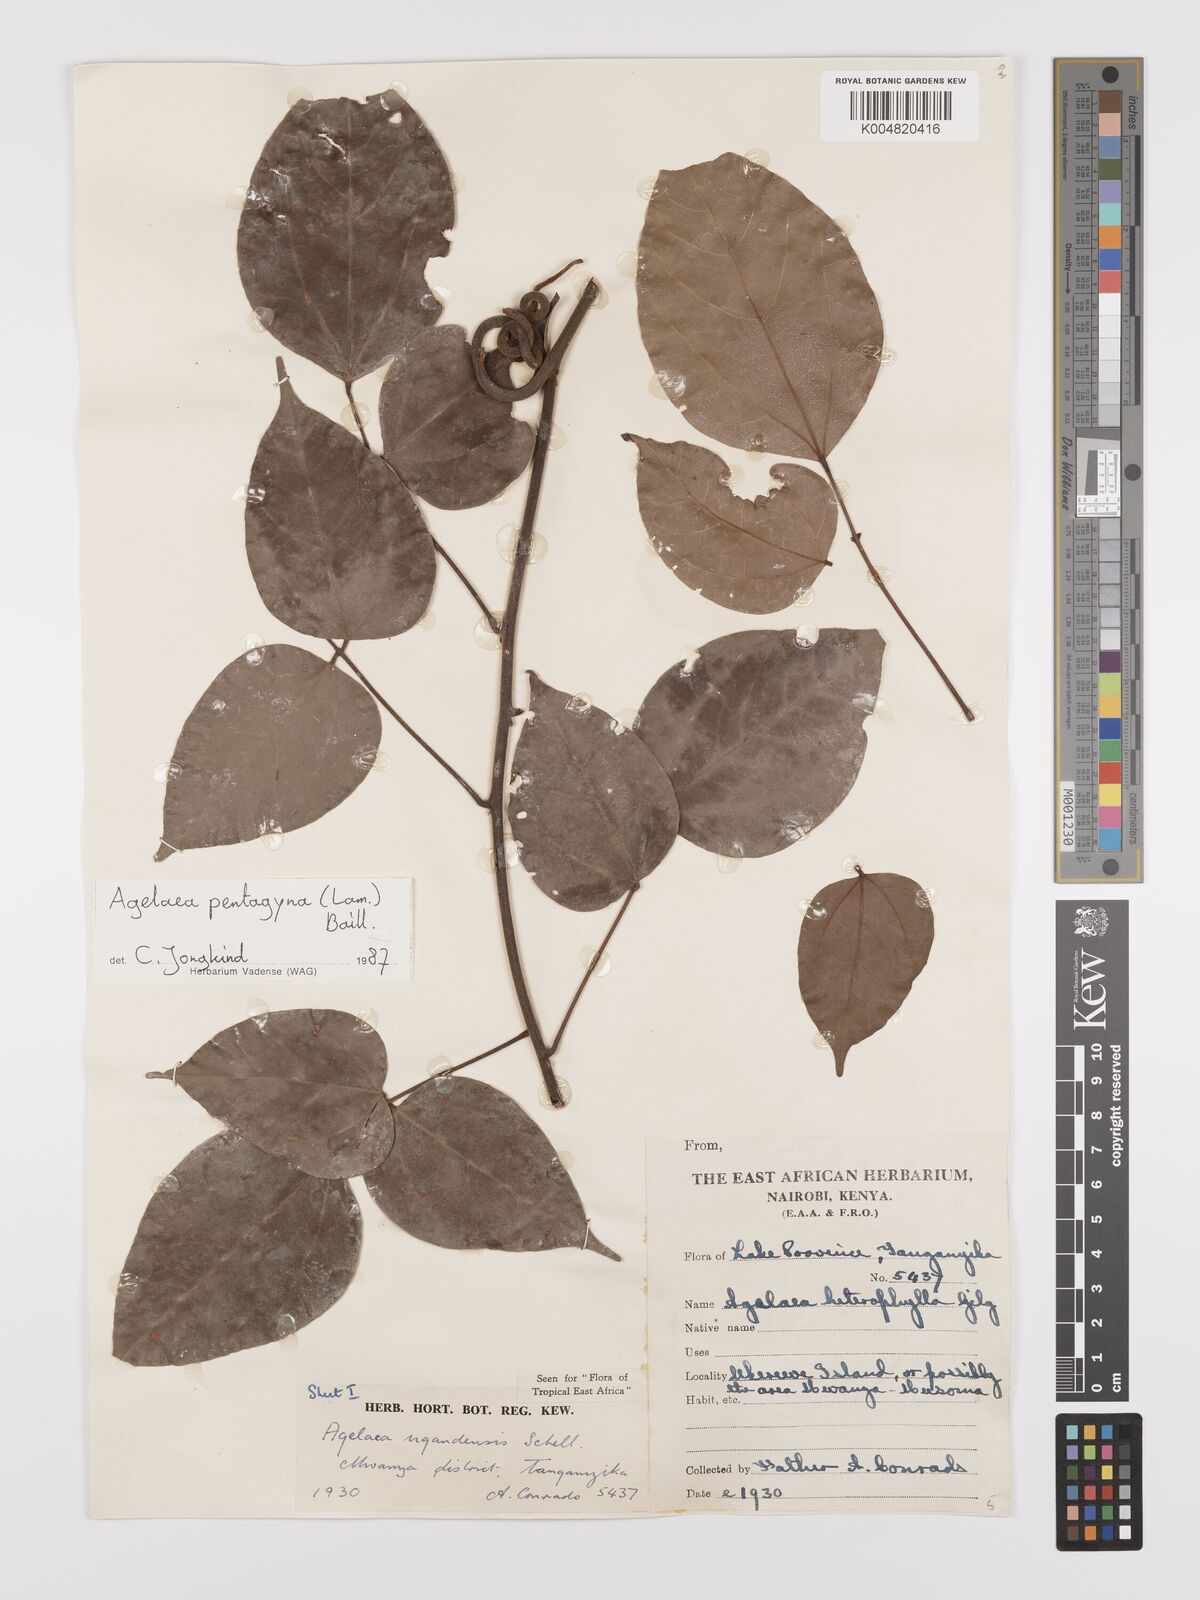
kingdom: Plantae
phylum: Tracheophyta
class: Magnoliopsida
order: Oxalidales
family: Connaraceae
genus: Agelaea
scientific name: Agelaea pentagyna
